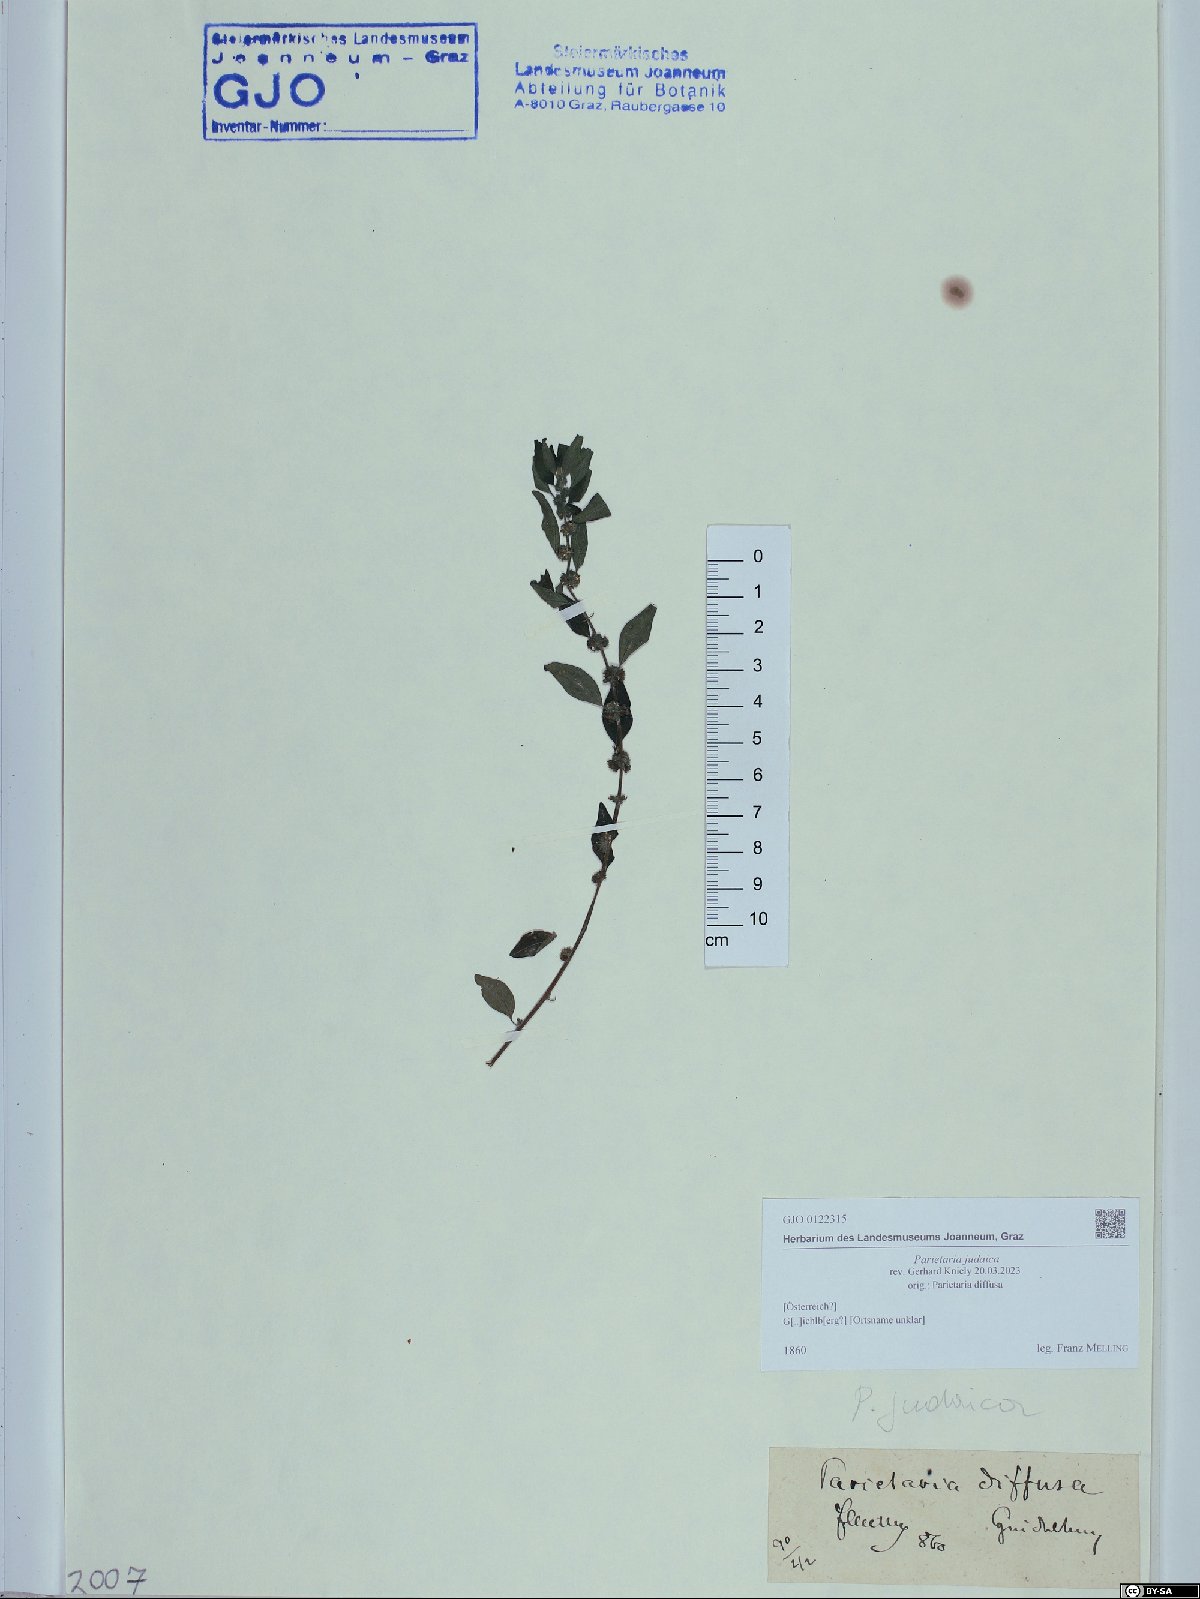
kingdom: Plantae
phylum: Tracheophyta
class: Magnoliopsida
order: Rosales
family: Urticaceae
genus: Parietaria
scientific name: Parietaria judaica
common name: Pellitory-of-the-wall
